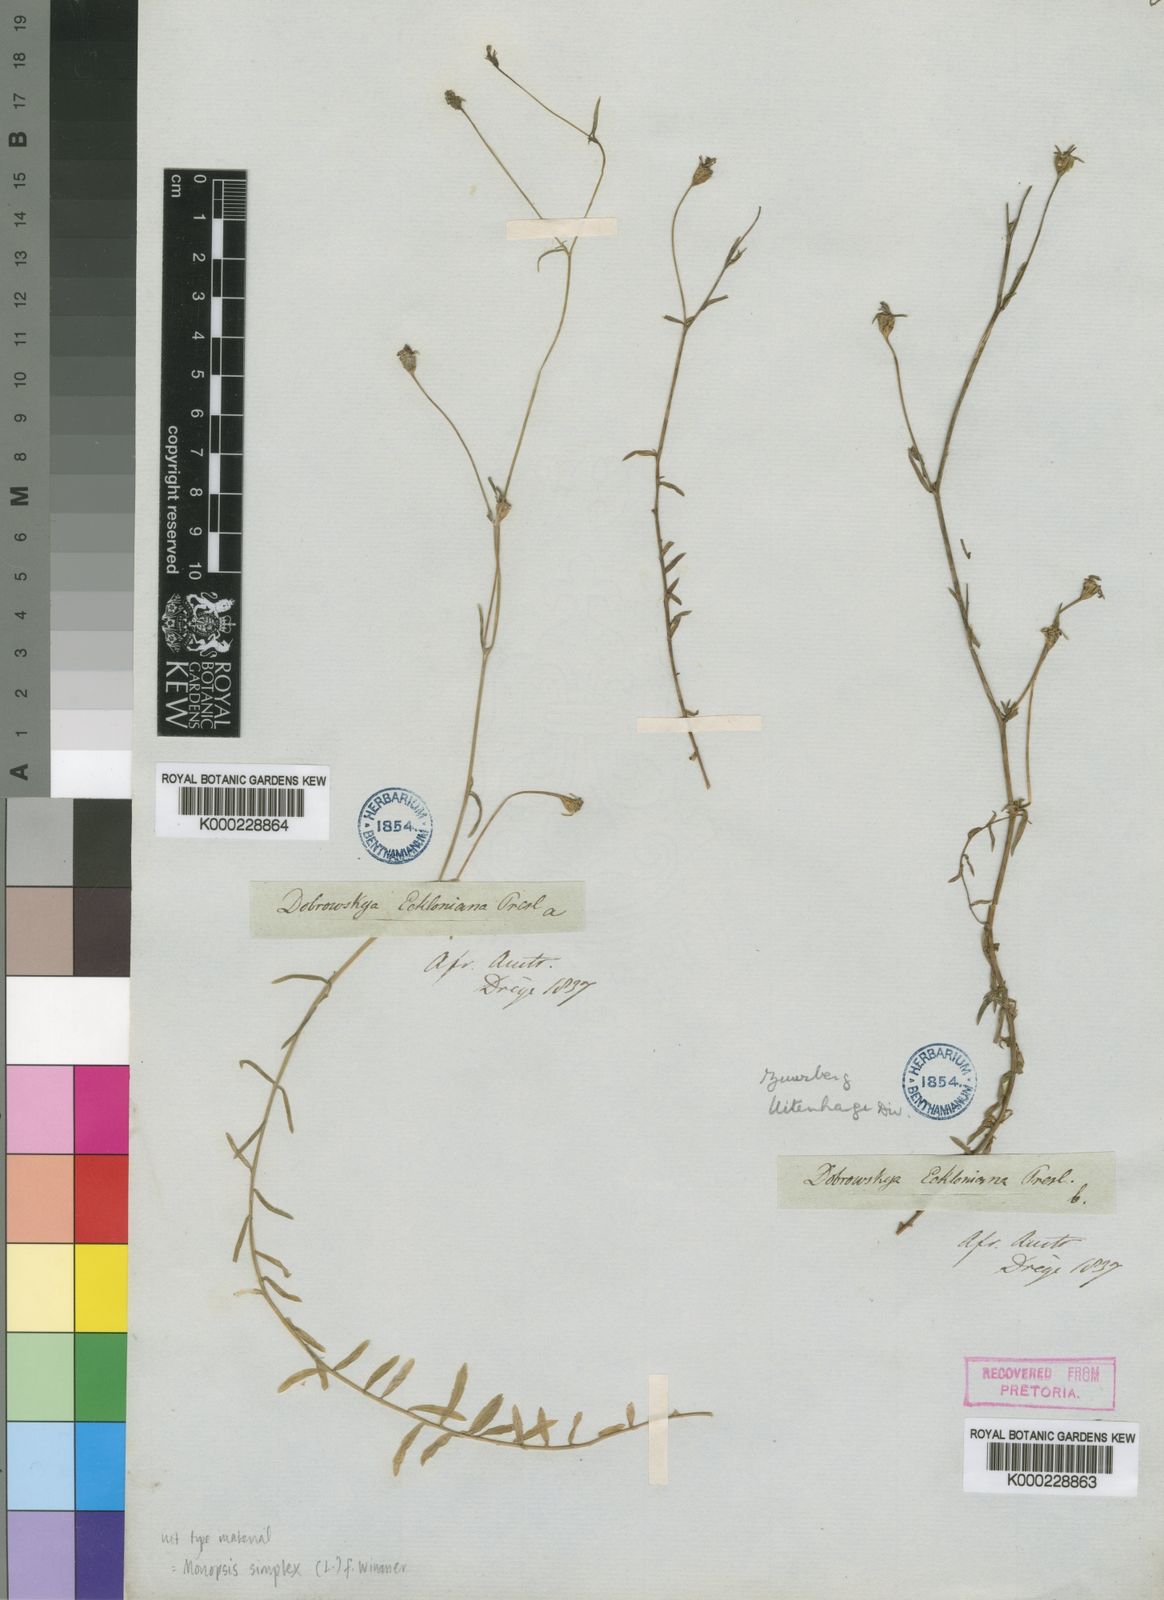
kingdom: Plantae
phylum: Tracheophyta
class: Magnoliopsida
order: Asterales
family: Campanulaceae
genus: Monopsis
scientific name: Monopsis simplex
